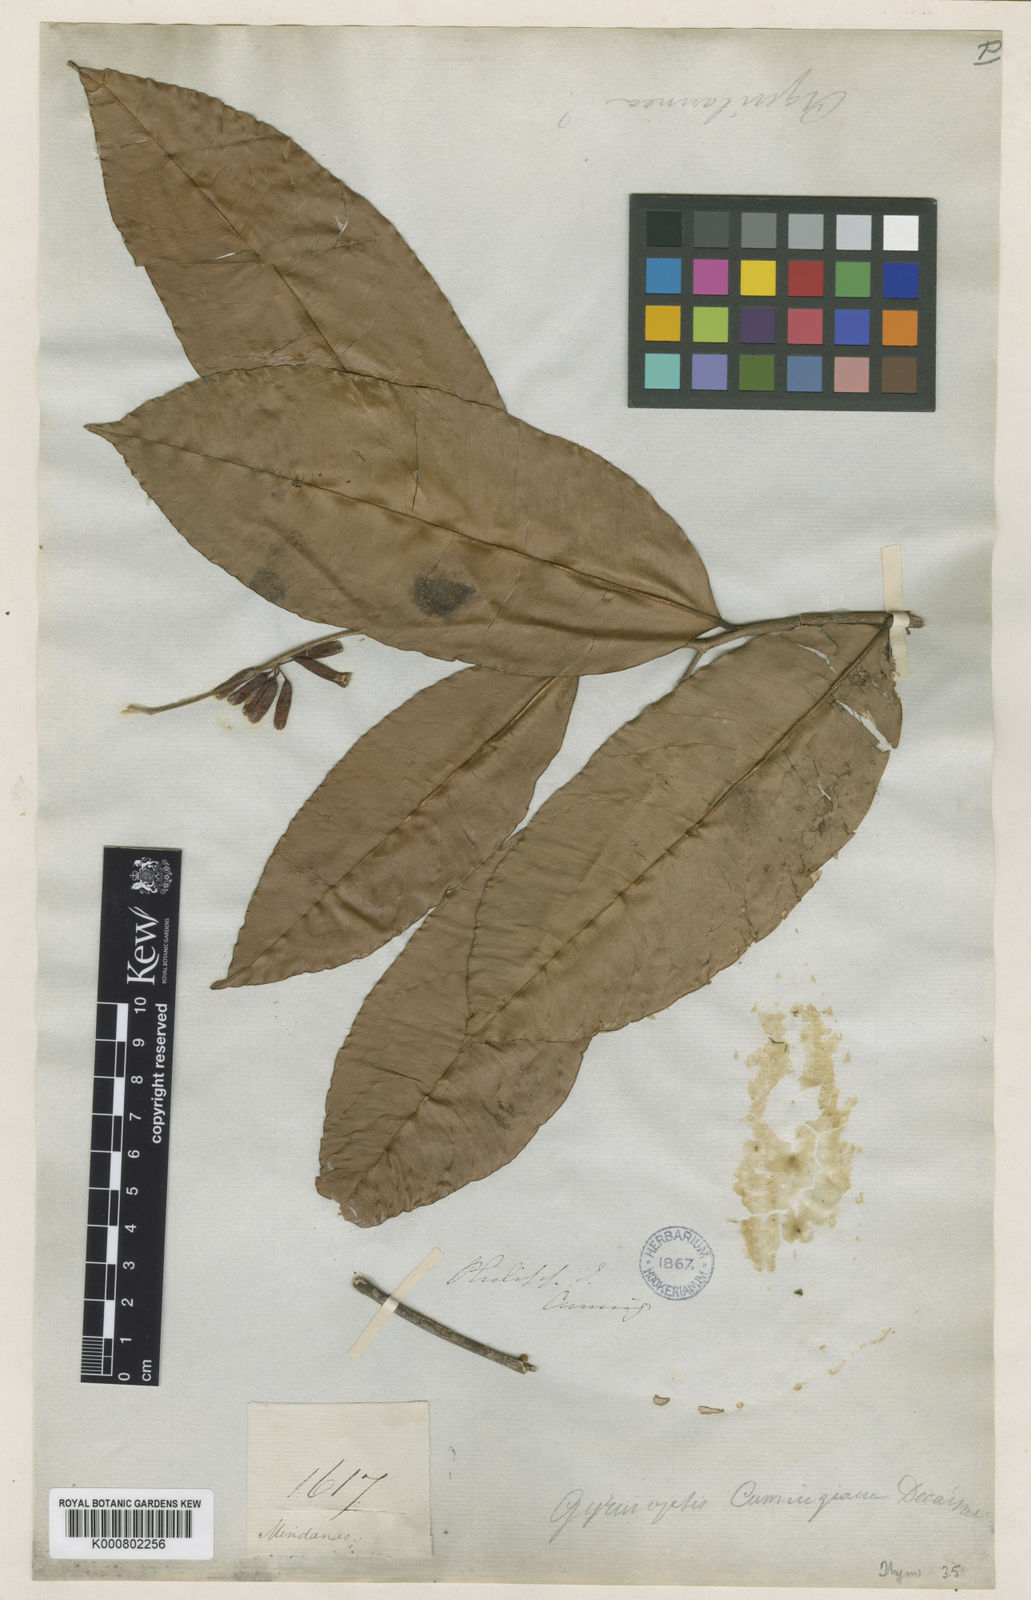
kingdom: Plantae
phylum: Tracheophyta
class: Magnoliopsida
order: Malvales
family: Thymelaeaceae
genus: Aquilaria
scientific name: Aquilaria cumingiana
